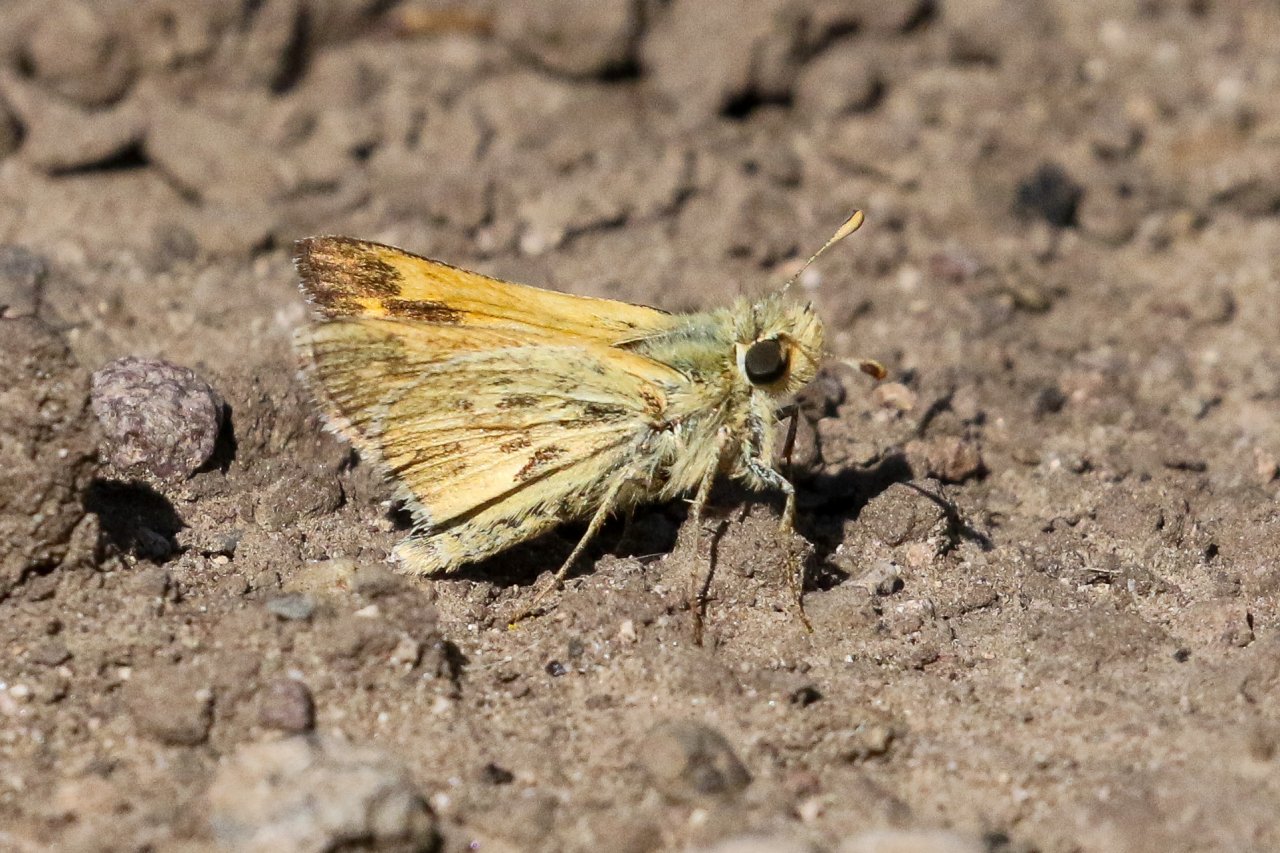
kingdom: Animalia
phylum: Arthropoda
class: Insecta
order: Lepidoptera
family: Hesperiidae
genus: Polites
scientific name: Polites sabuleti
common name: Sandhill Skipper
